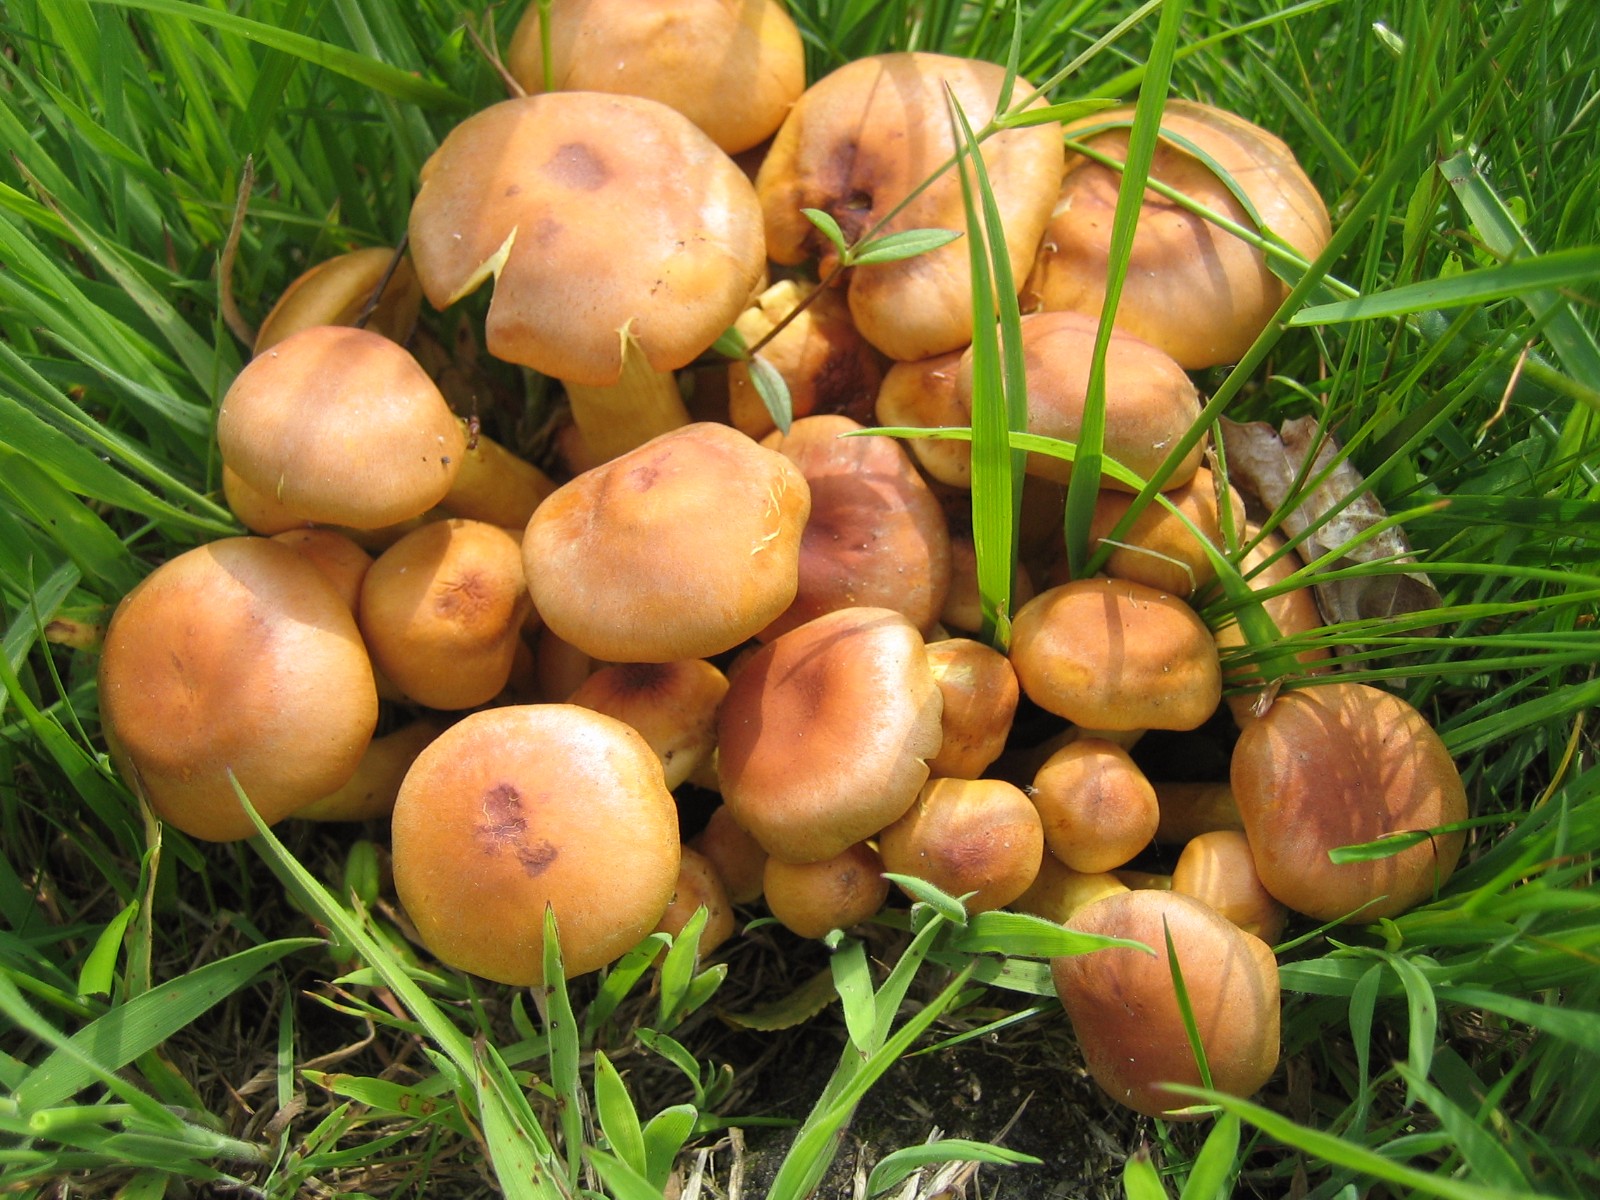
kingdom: Fungi
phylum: Basidiomycota
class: Agaricomycetes
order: Agaricales
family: Strophariaceae
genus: Hypholoma
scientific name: Hypholoma fasciculare
